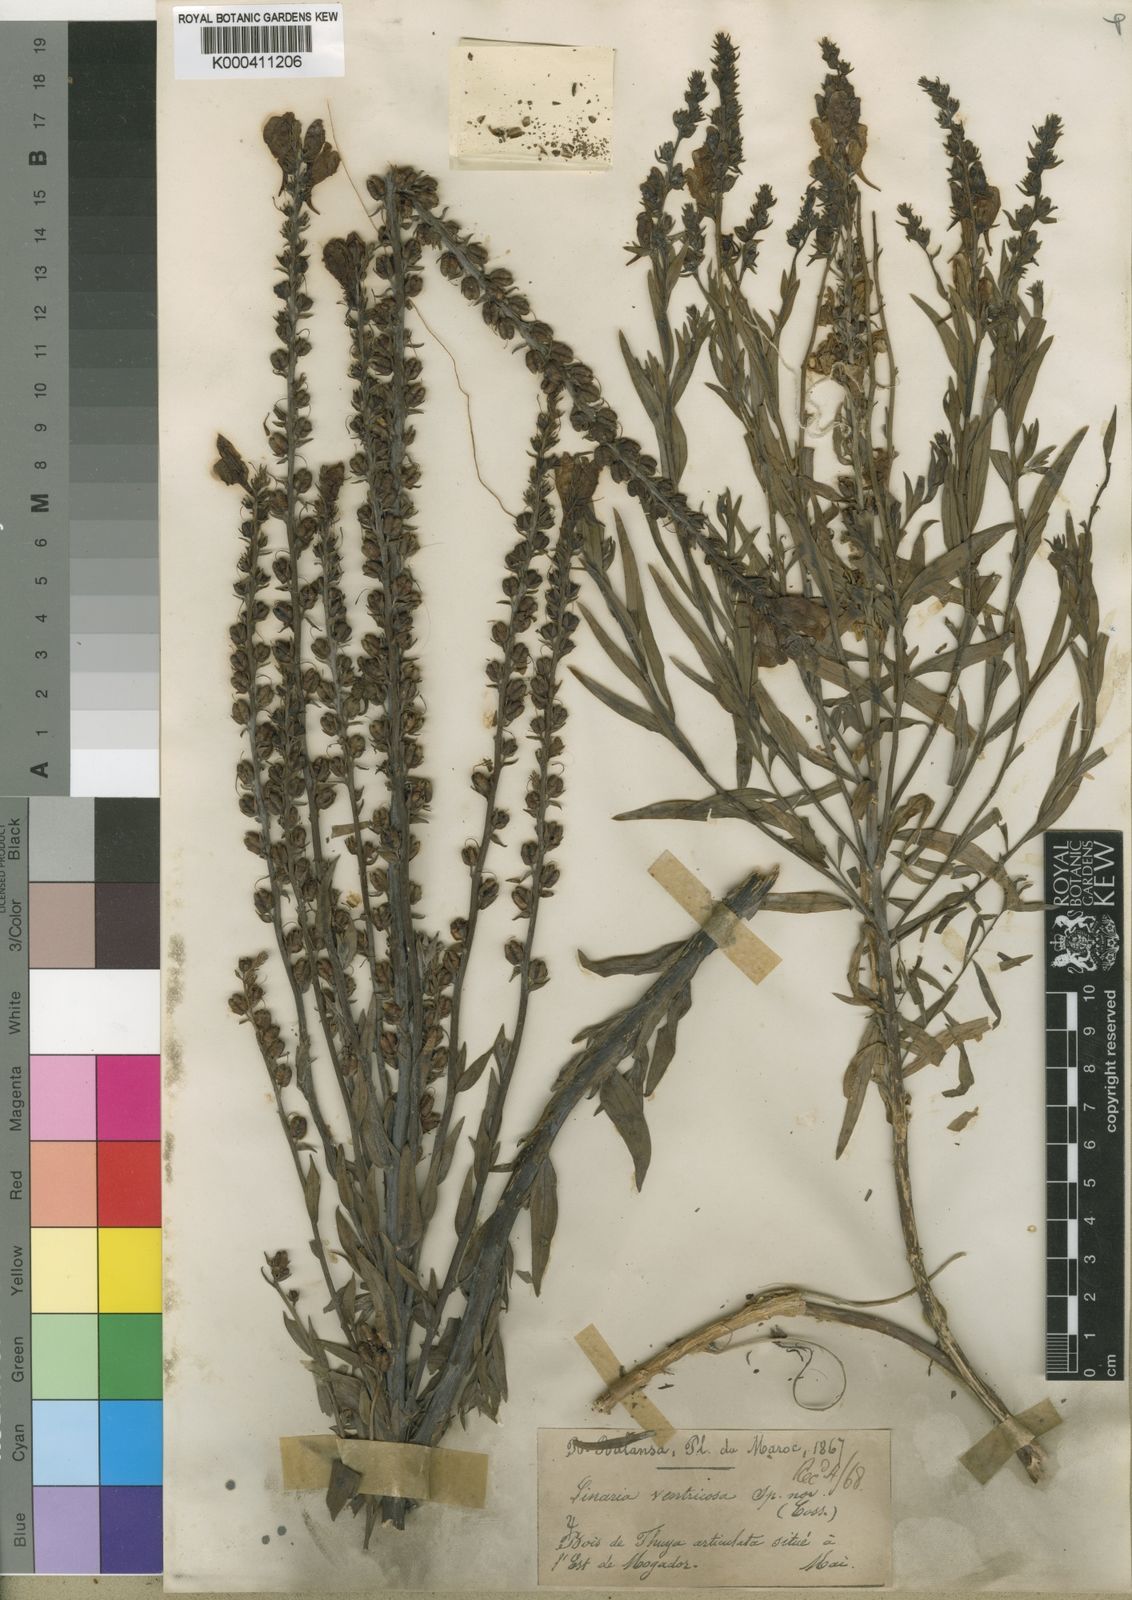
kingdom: Plantae
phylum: Tracheophyta
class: Magnoliopsida
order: Lamiales
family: Plantaginaceae
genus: Linaria
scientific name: Linaria ventricosa
